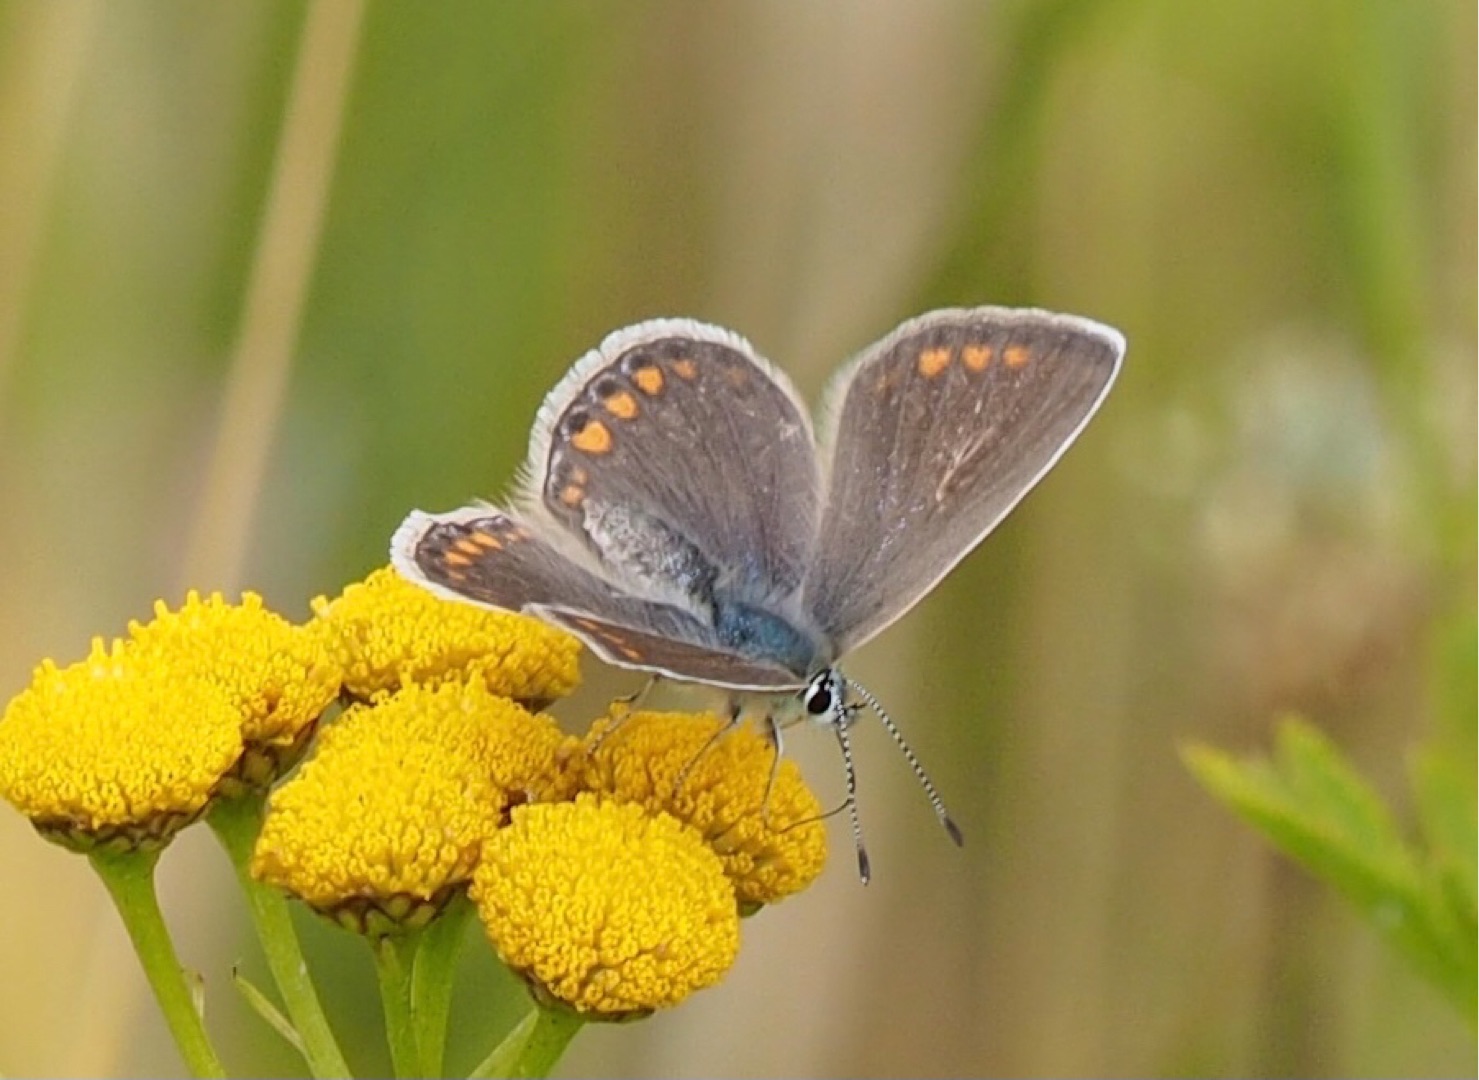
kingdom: Animalia
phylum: Arthropoda
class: Insecta
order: Lepidoptera
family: Lycaenidae
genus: Polyommatus
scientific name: Polyommatus icarus
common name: Almindelig blåfugl
